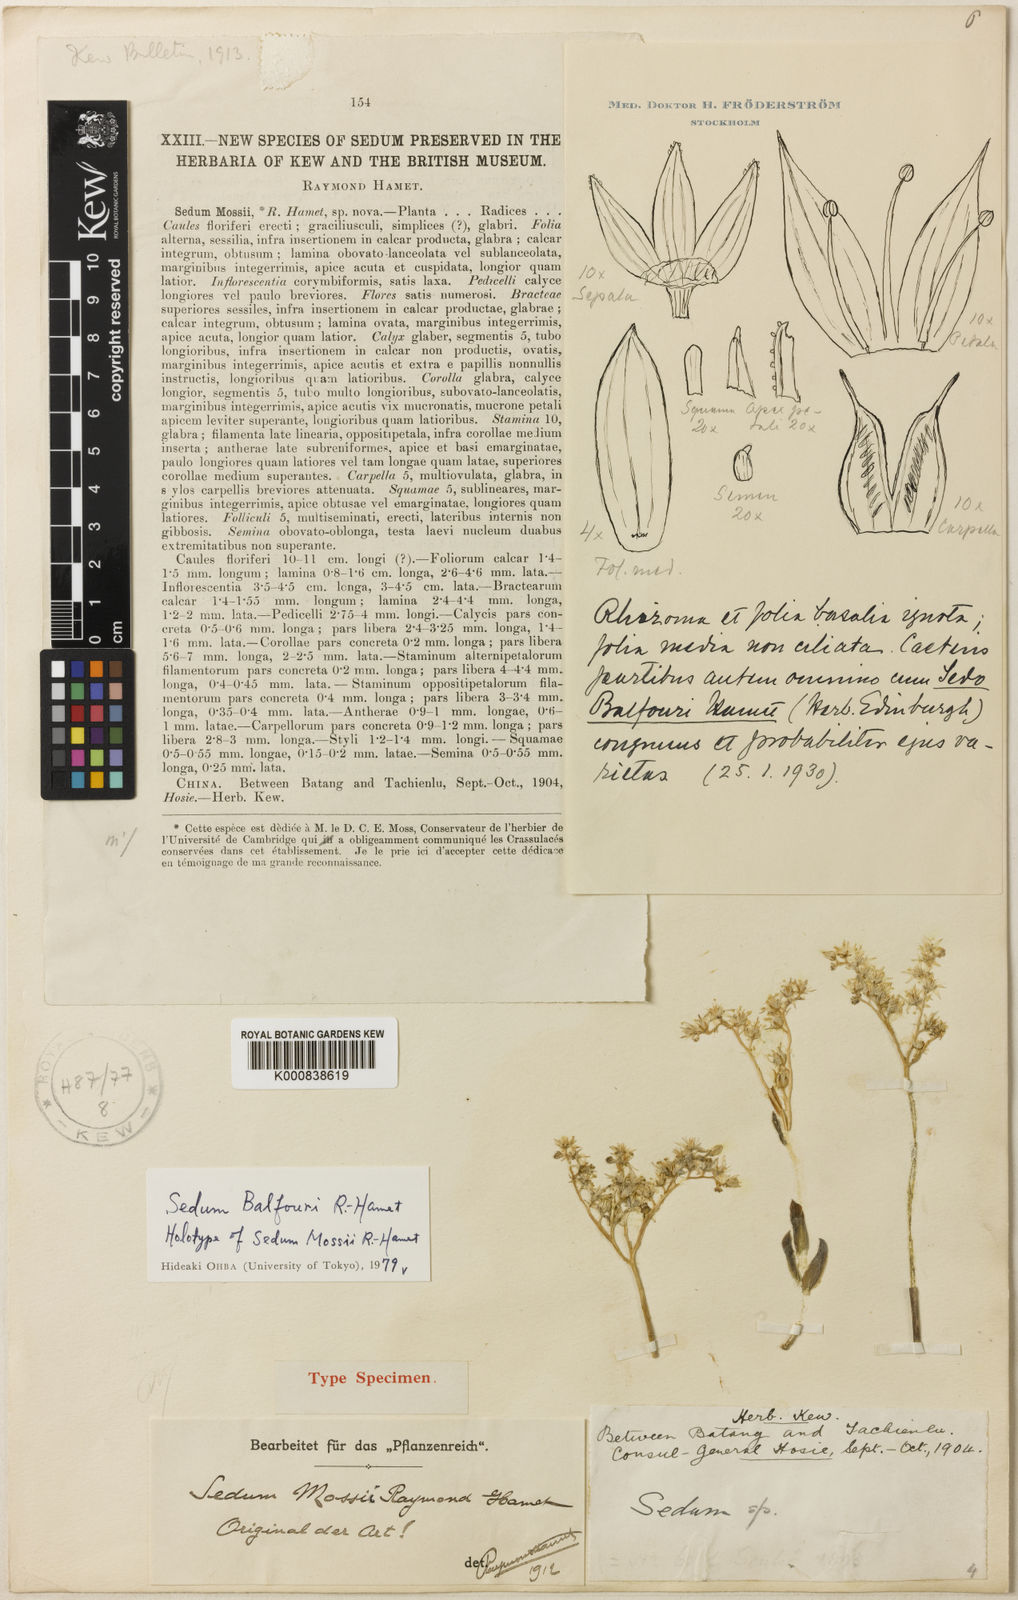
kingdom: Plantae
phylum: Tracheophyta
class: Magnoliopsida
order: Saxifragales
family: Crassulaceae
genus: Sedum
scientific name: Sedum balfourii
